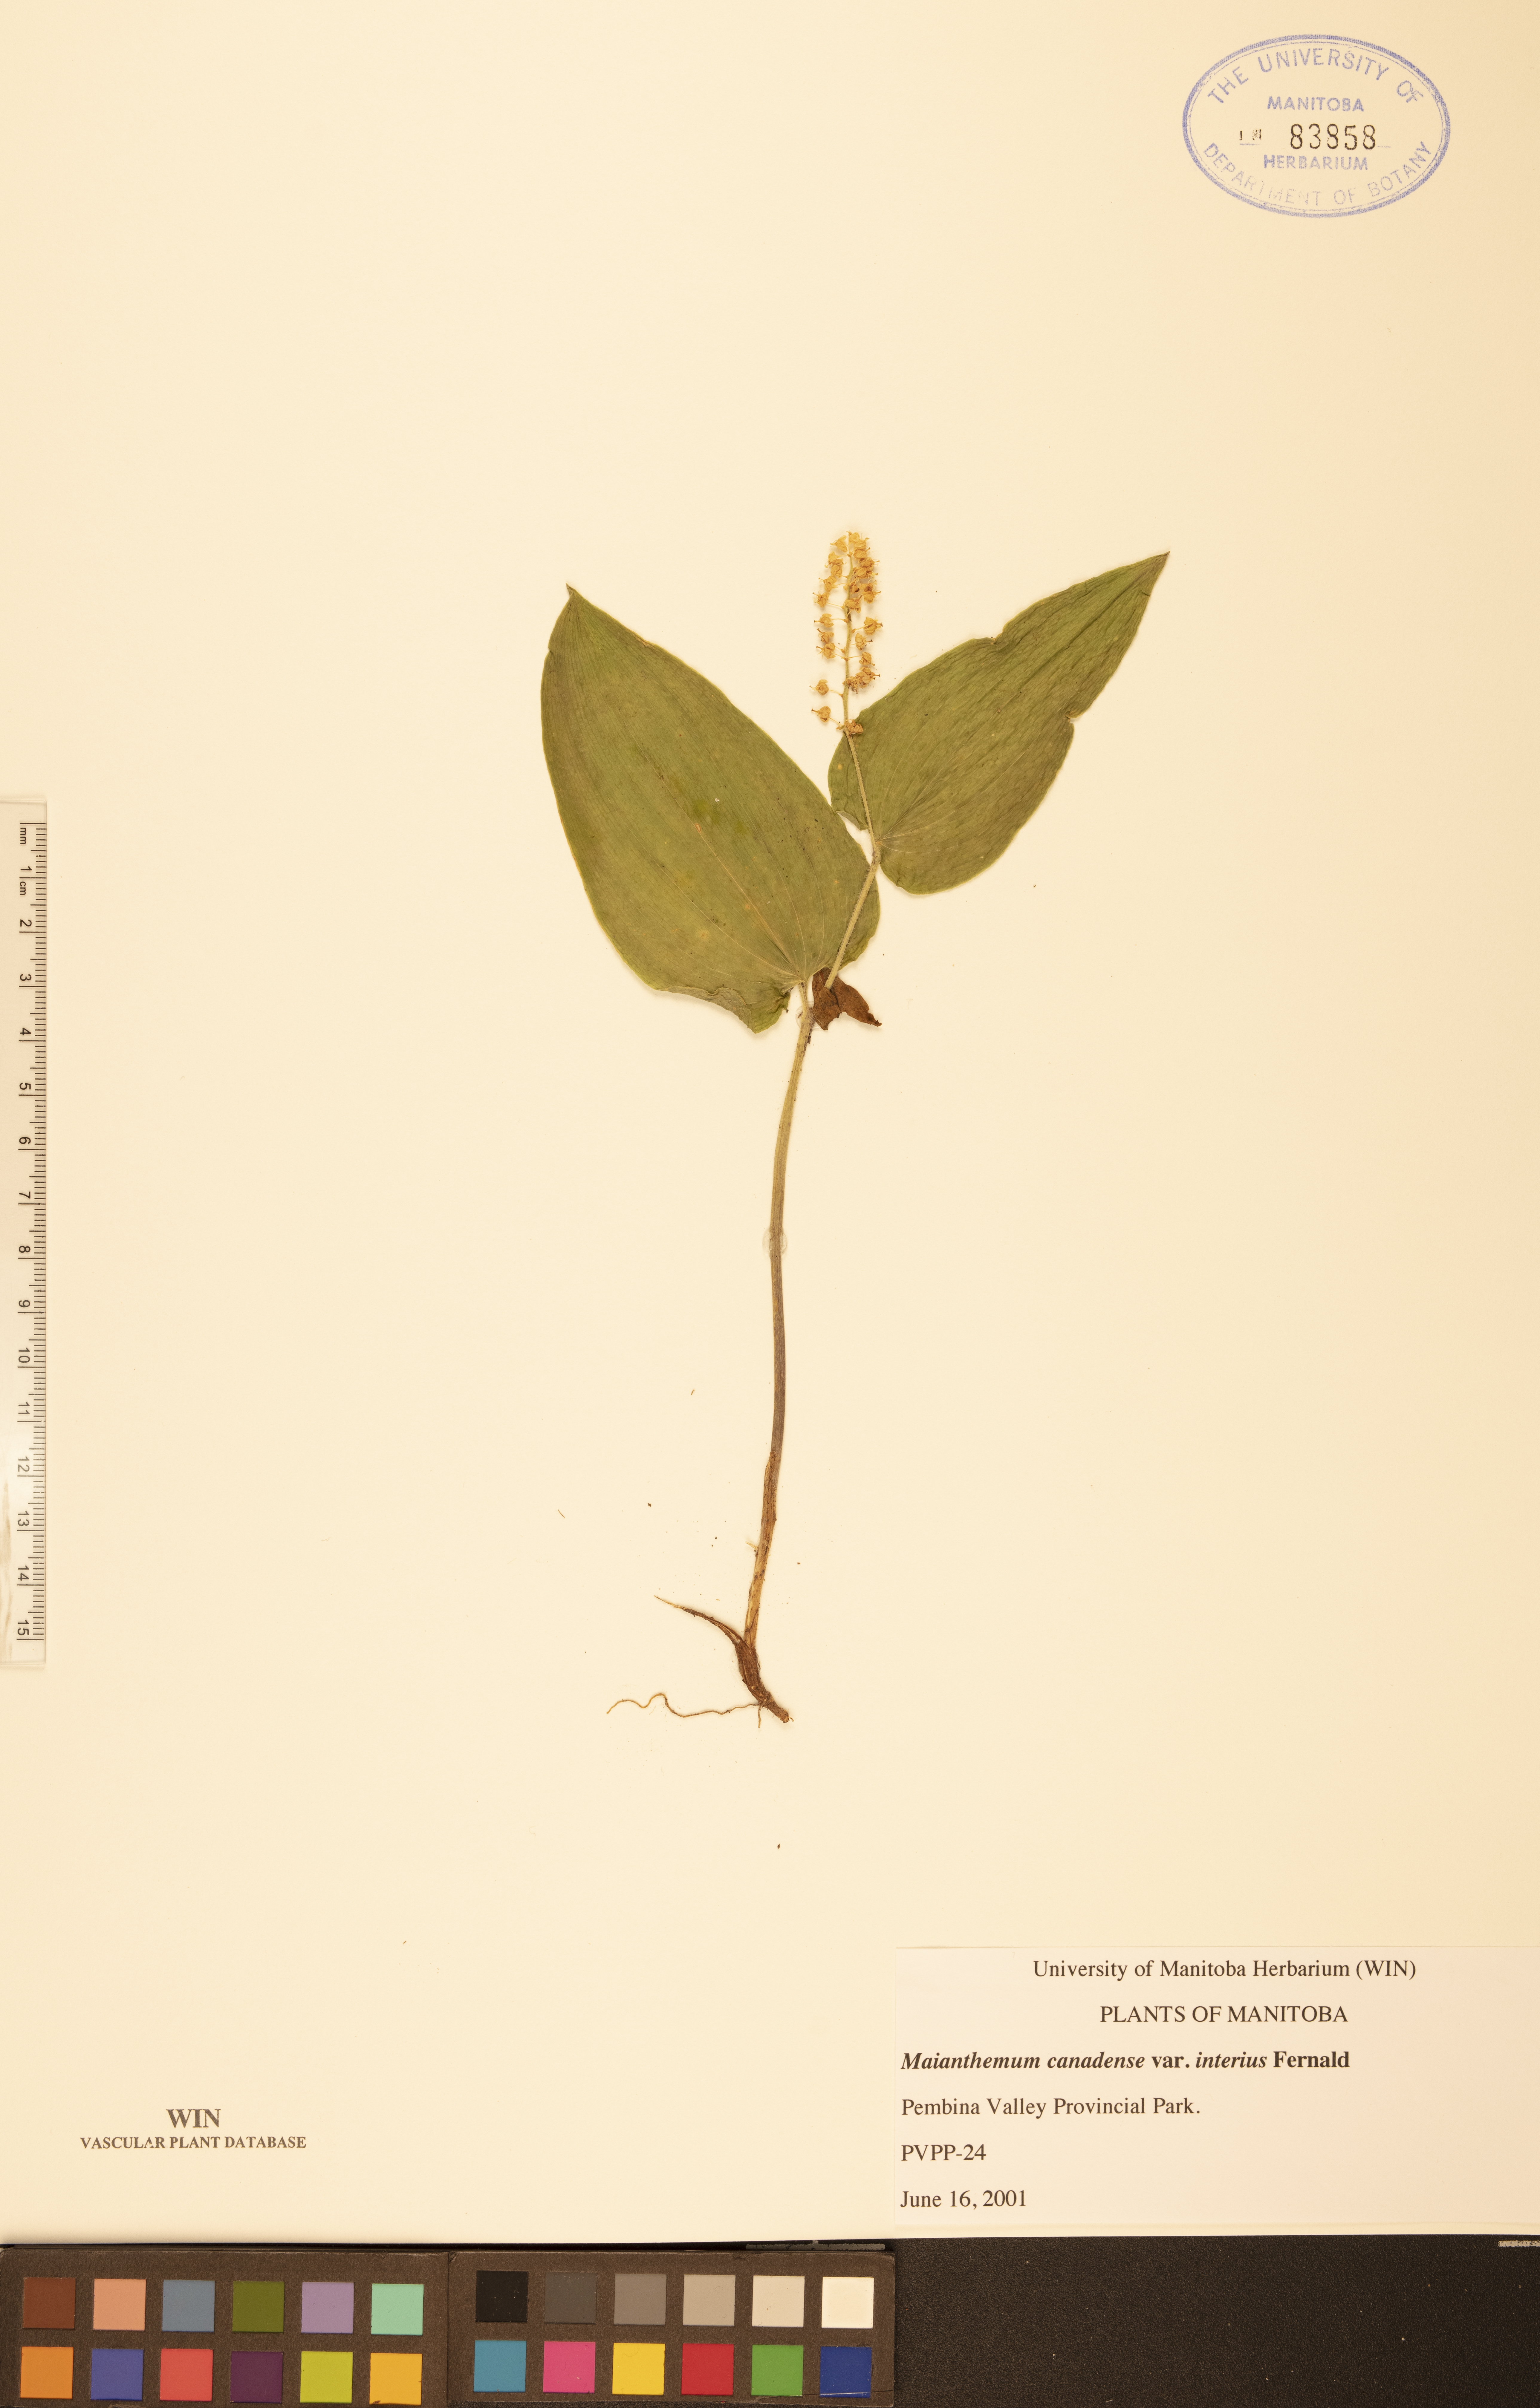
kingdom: Plantae
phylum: Tracheophyta
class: Liliopsida
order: Asparagales
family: Asparagaceae
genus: Maianthemum
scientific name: Maianthemum canadense
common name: False lily-of-the-valley
